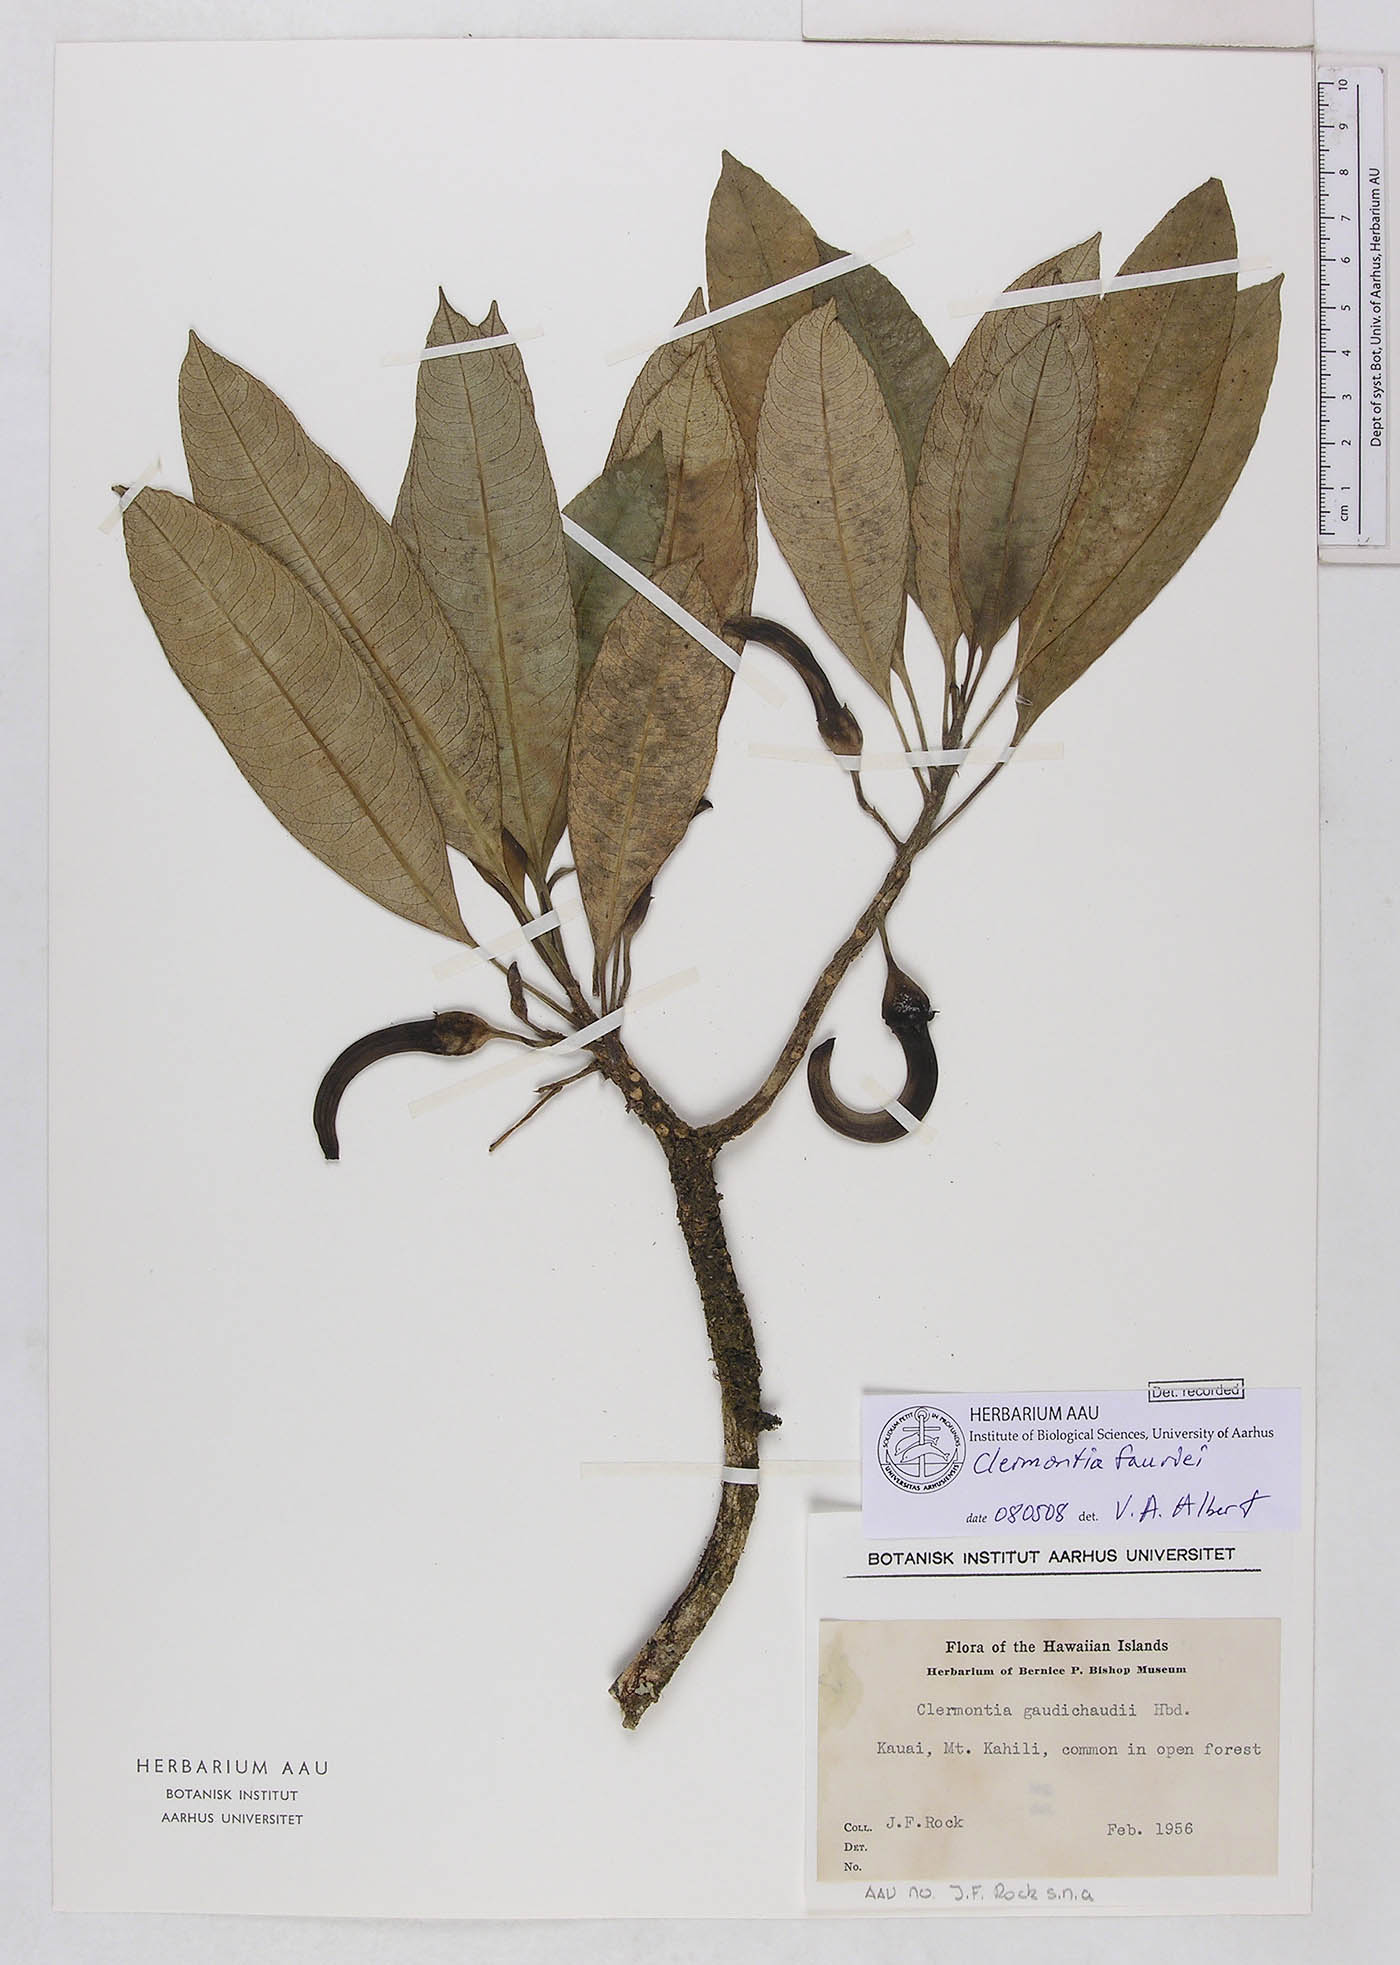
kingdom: Plantae
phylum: Tracheophyta
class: Magnoliopsida
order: Asterales
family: Campanulaceae
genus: Clermontia
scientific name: Clermontia fauriei
